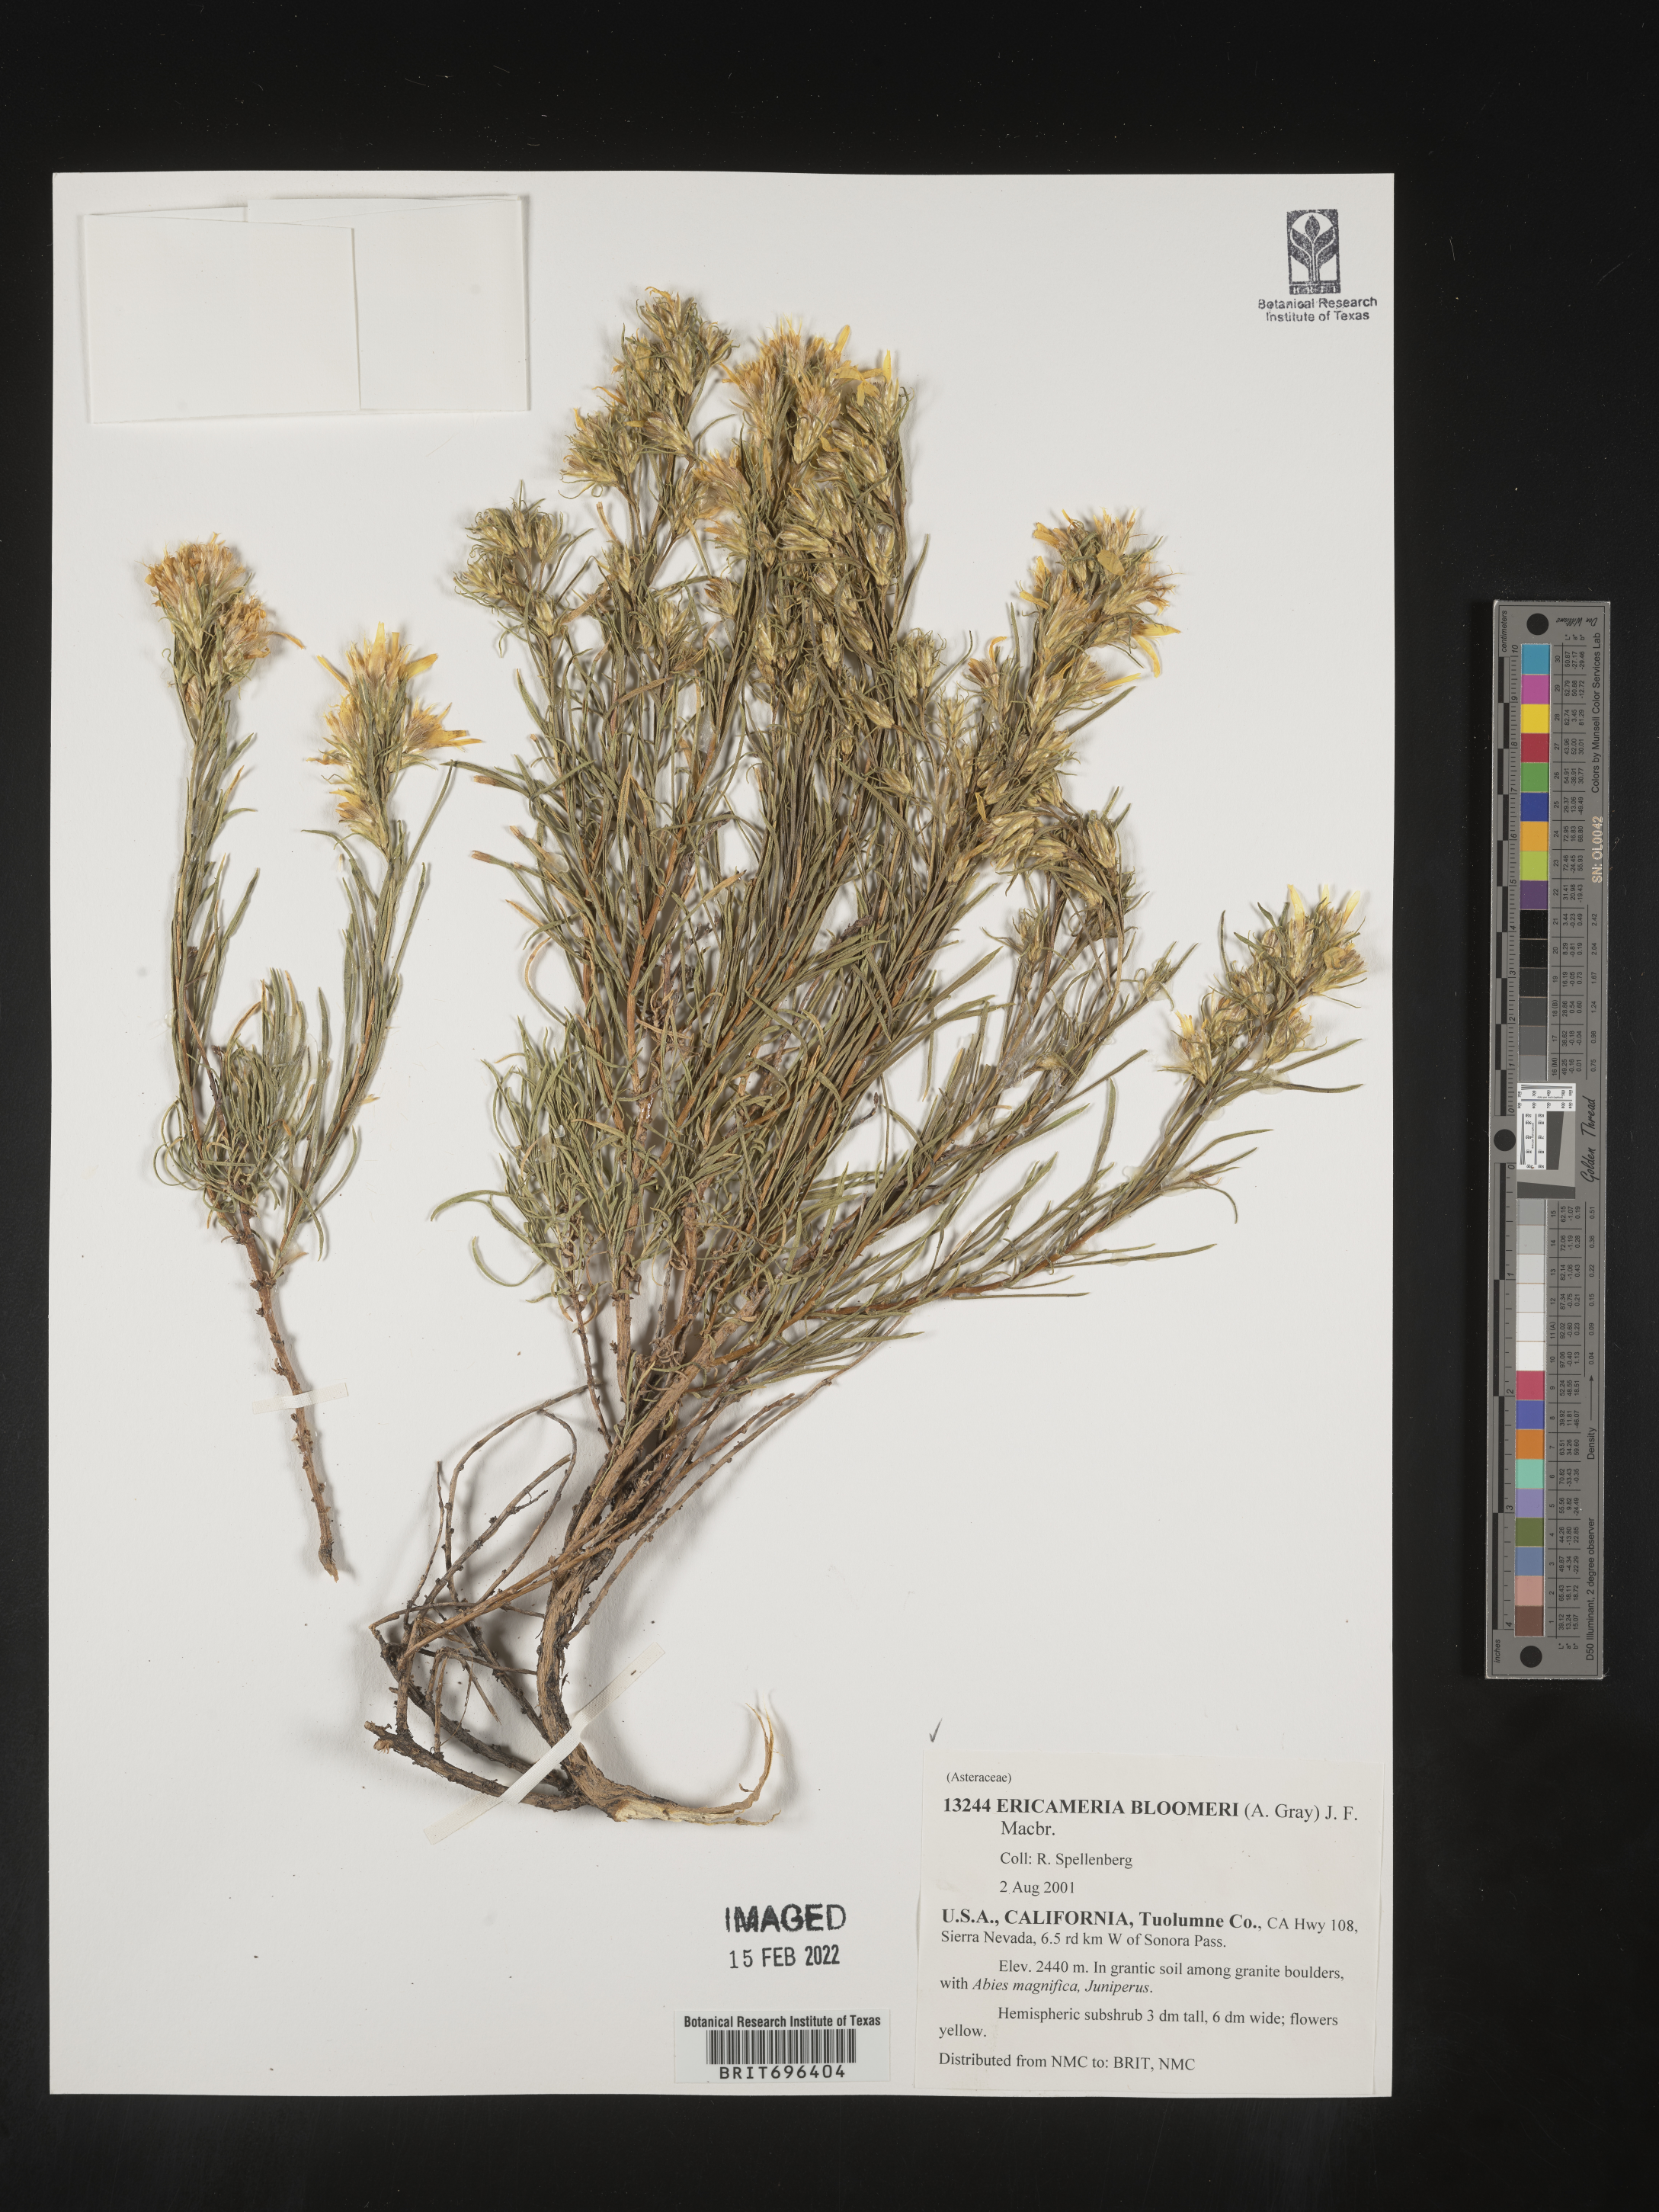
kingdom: Plantae
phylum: Tracheophyta
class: Magnoliopsida
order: Asterales
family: Asteraceae
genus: Ericameria
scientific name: Ericameria bloomeri
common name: Bloomer's goldenbush
